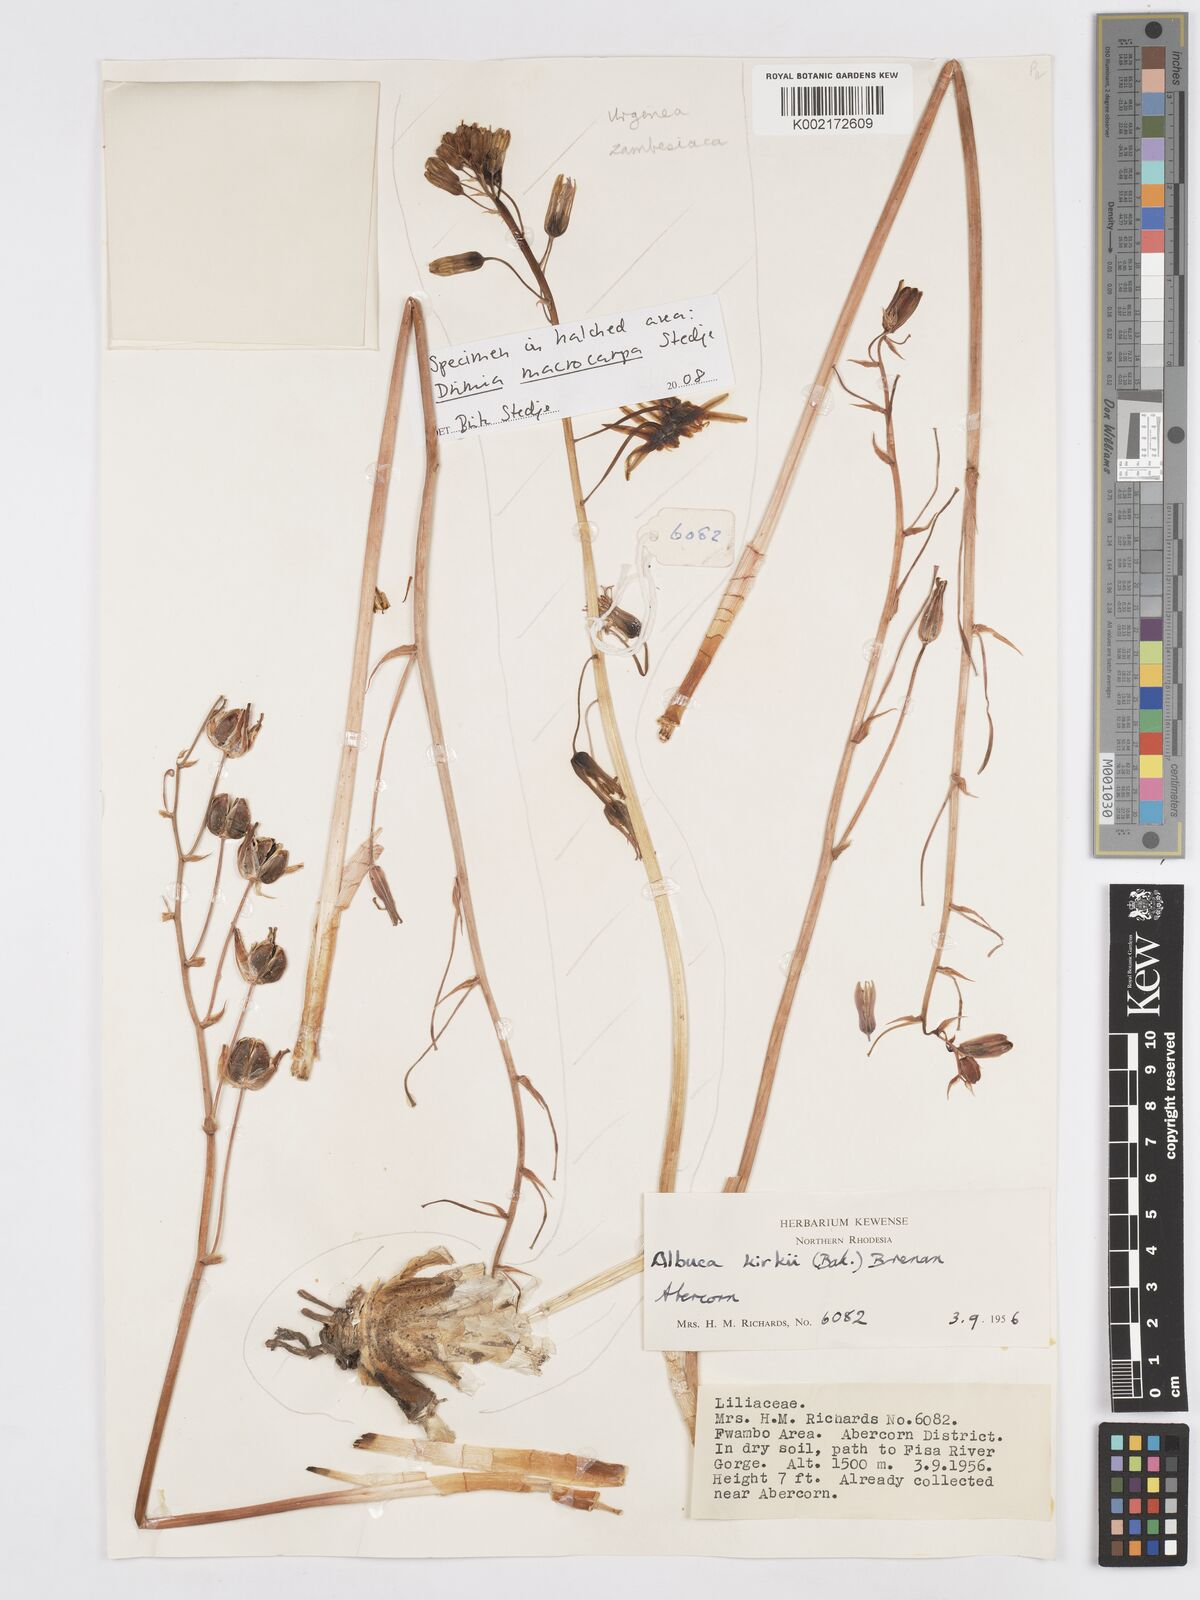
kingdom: Plantae
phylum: Tracheophyta
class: Liliopsida
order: Asparagales
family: Asparagaceae
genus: Albuca
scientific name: Albuca kirkii
